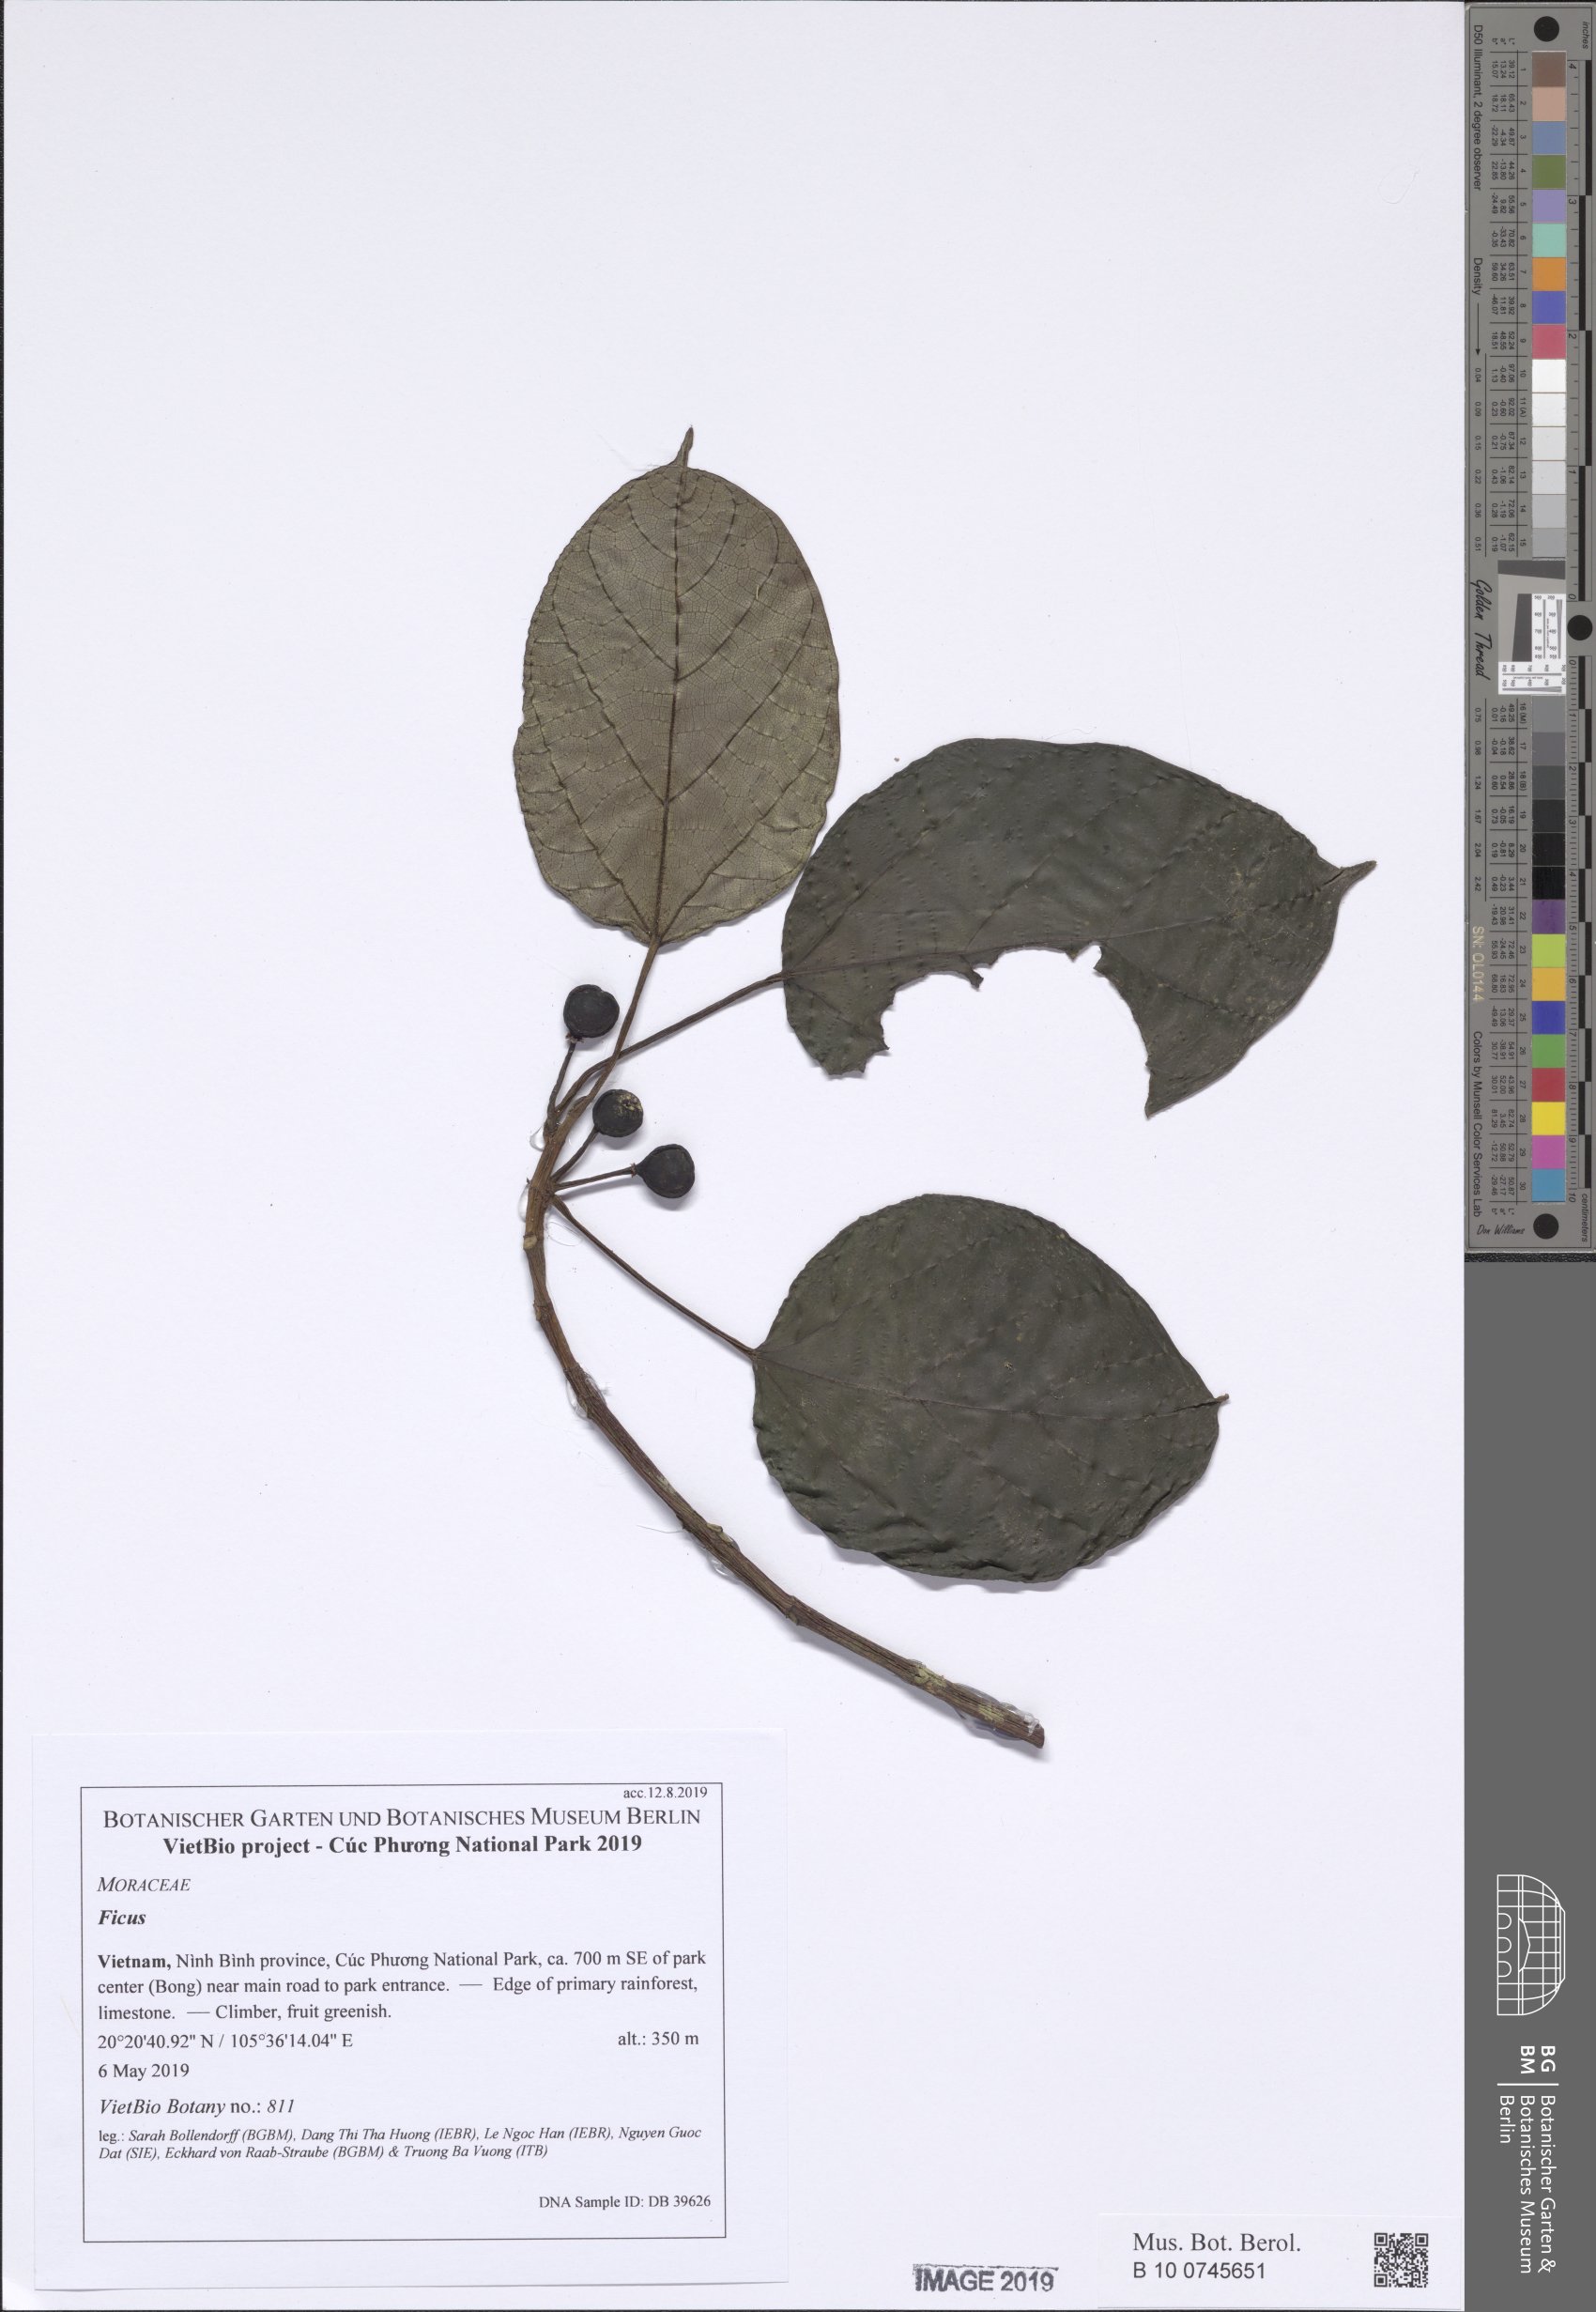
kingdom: Plantae
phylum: Tracheophyta
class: Magnoliopsida
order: Rosales
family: Moraceae
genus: Ficus
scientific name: Ficus erecta
